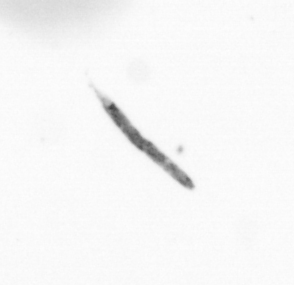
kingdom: Chromista
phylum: Ochrophyta
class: Bacillariophyceae
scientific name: Bacillariophyceae
